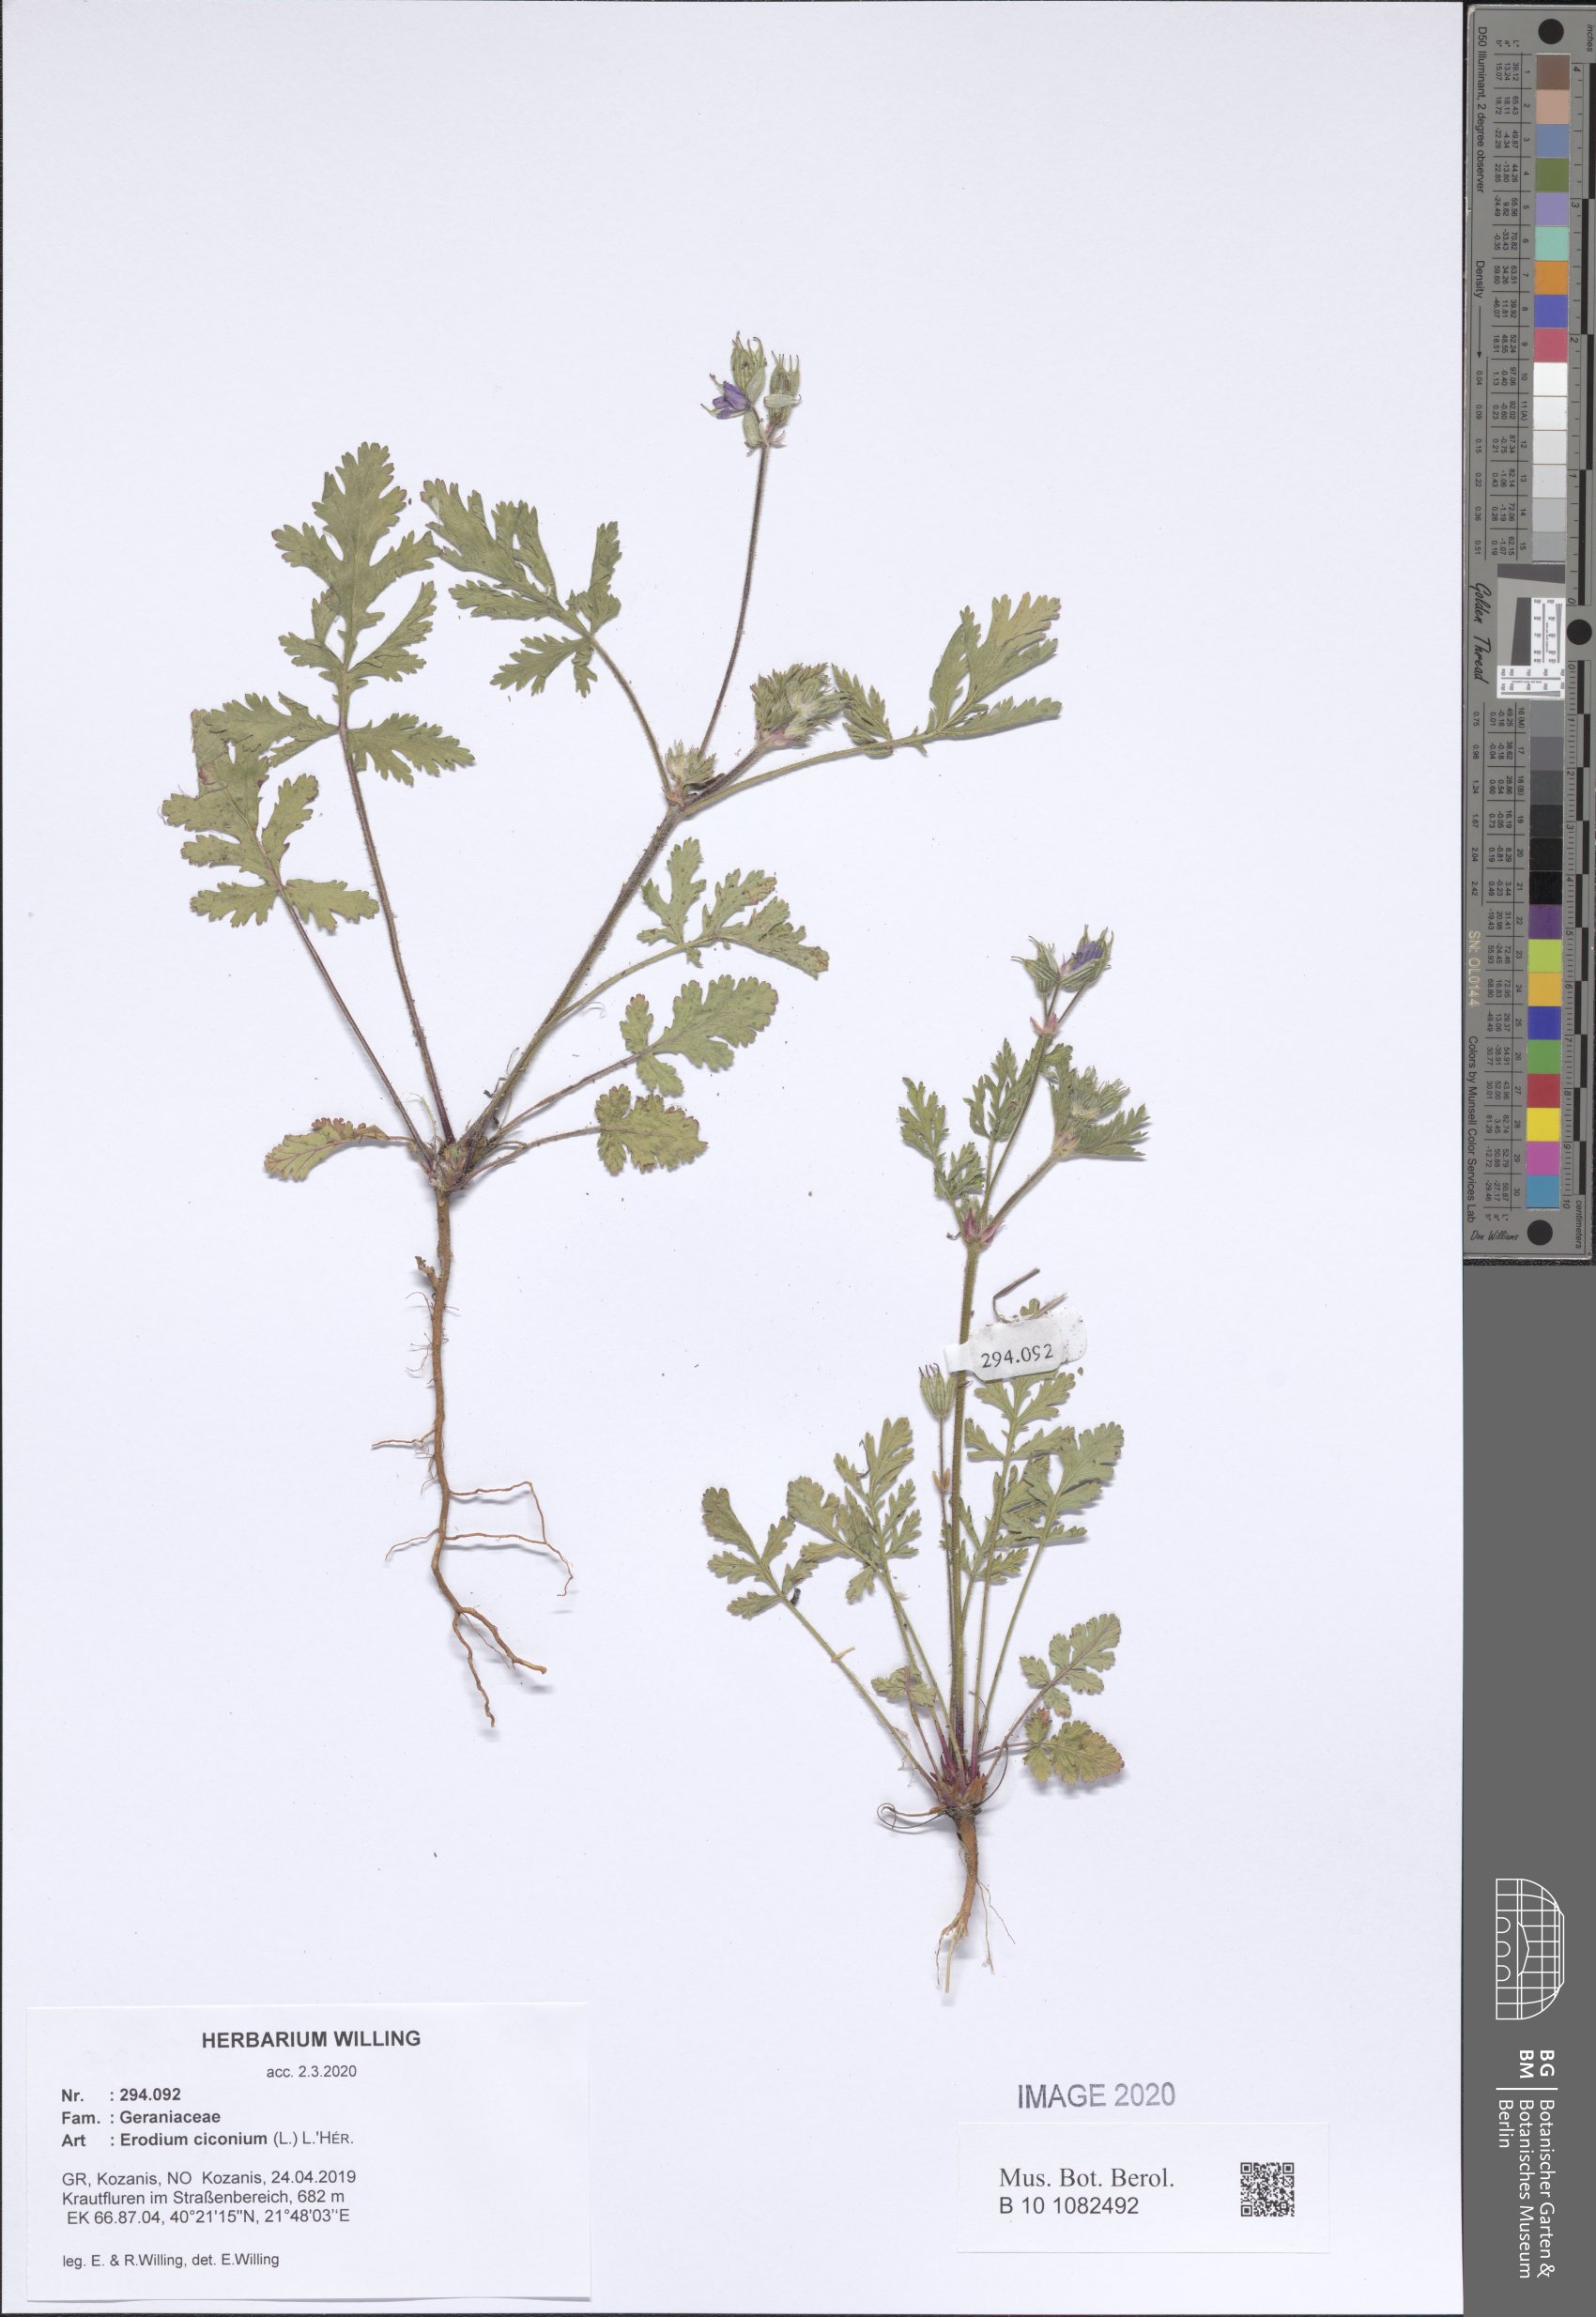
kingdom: Plantae
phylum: Tracheophyta
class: Magnoliopsida
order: Geraniales
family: Geraniaceae
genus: Erodium
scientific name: Erodium ciconium
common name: Common stork's bill
